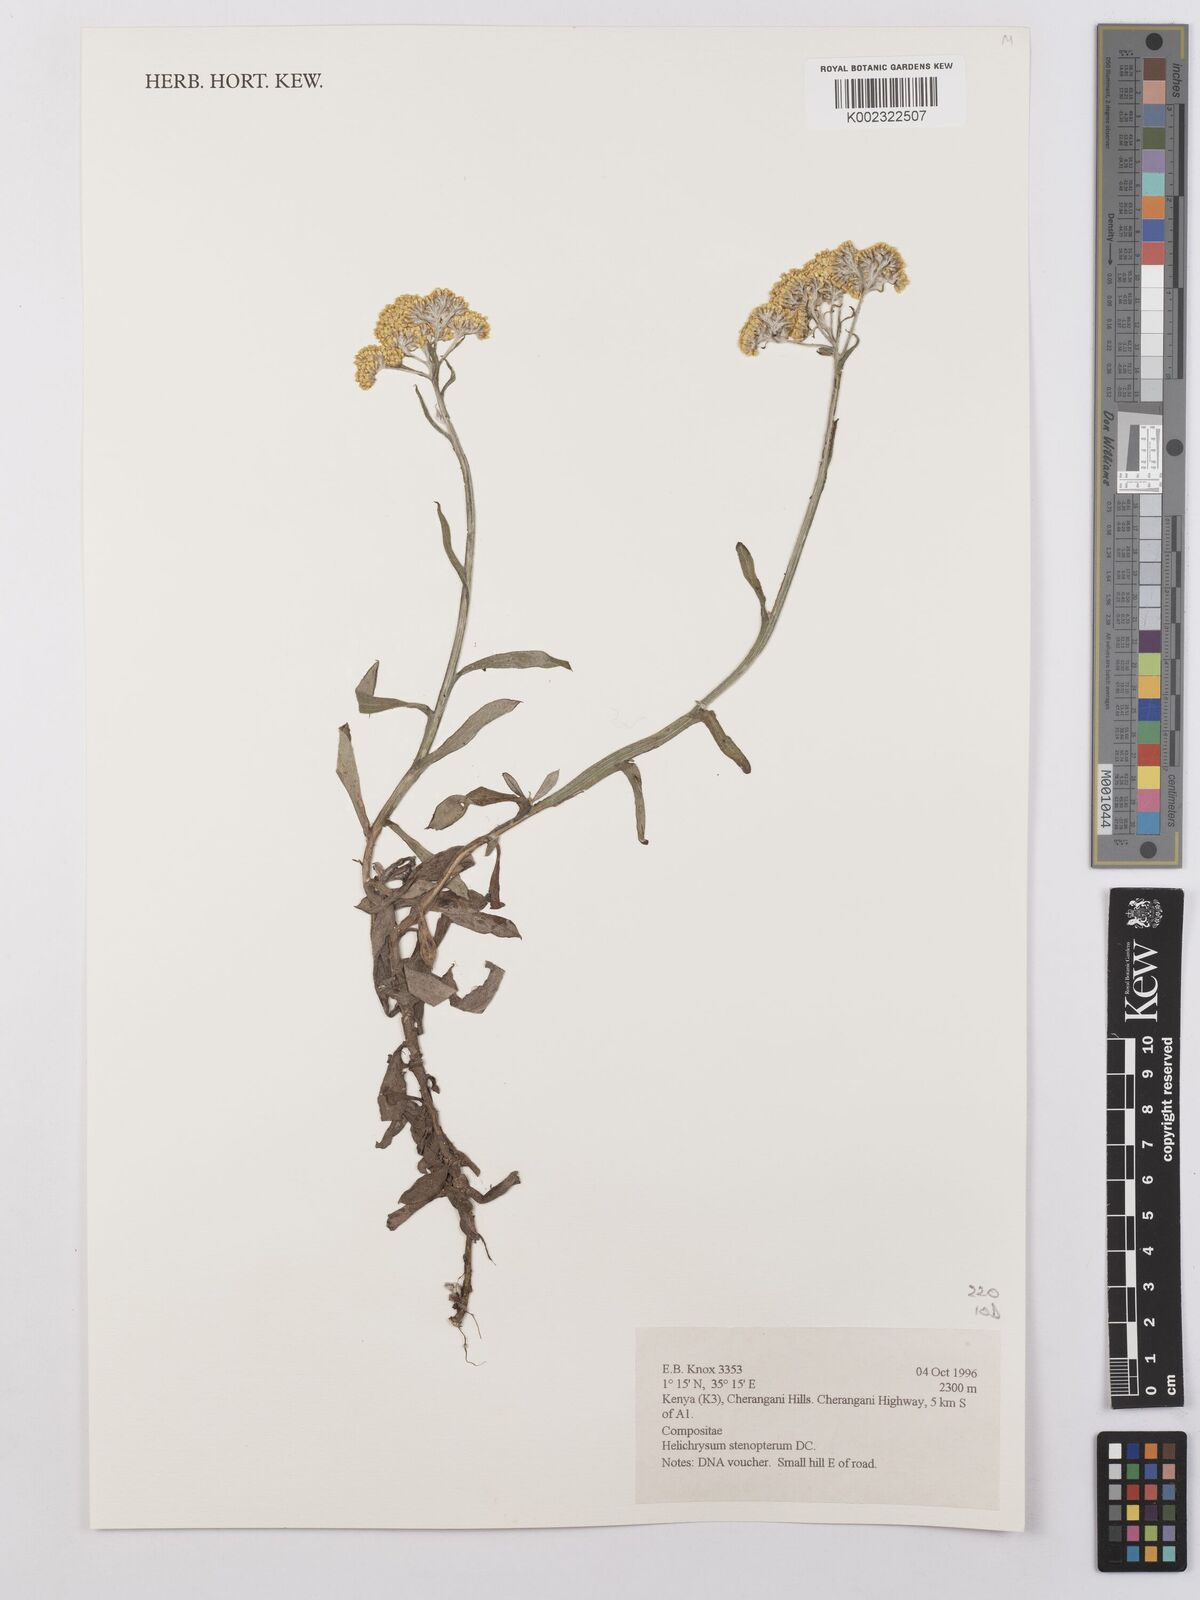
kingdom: Plantae
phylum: Tracheophyta
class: Magnoliopsida
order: Asterales
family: Asteraceae
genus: Helichrysum
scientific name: Helichrysum stenopterum
